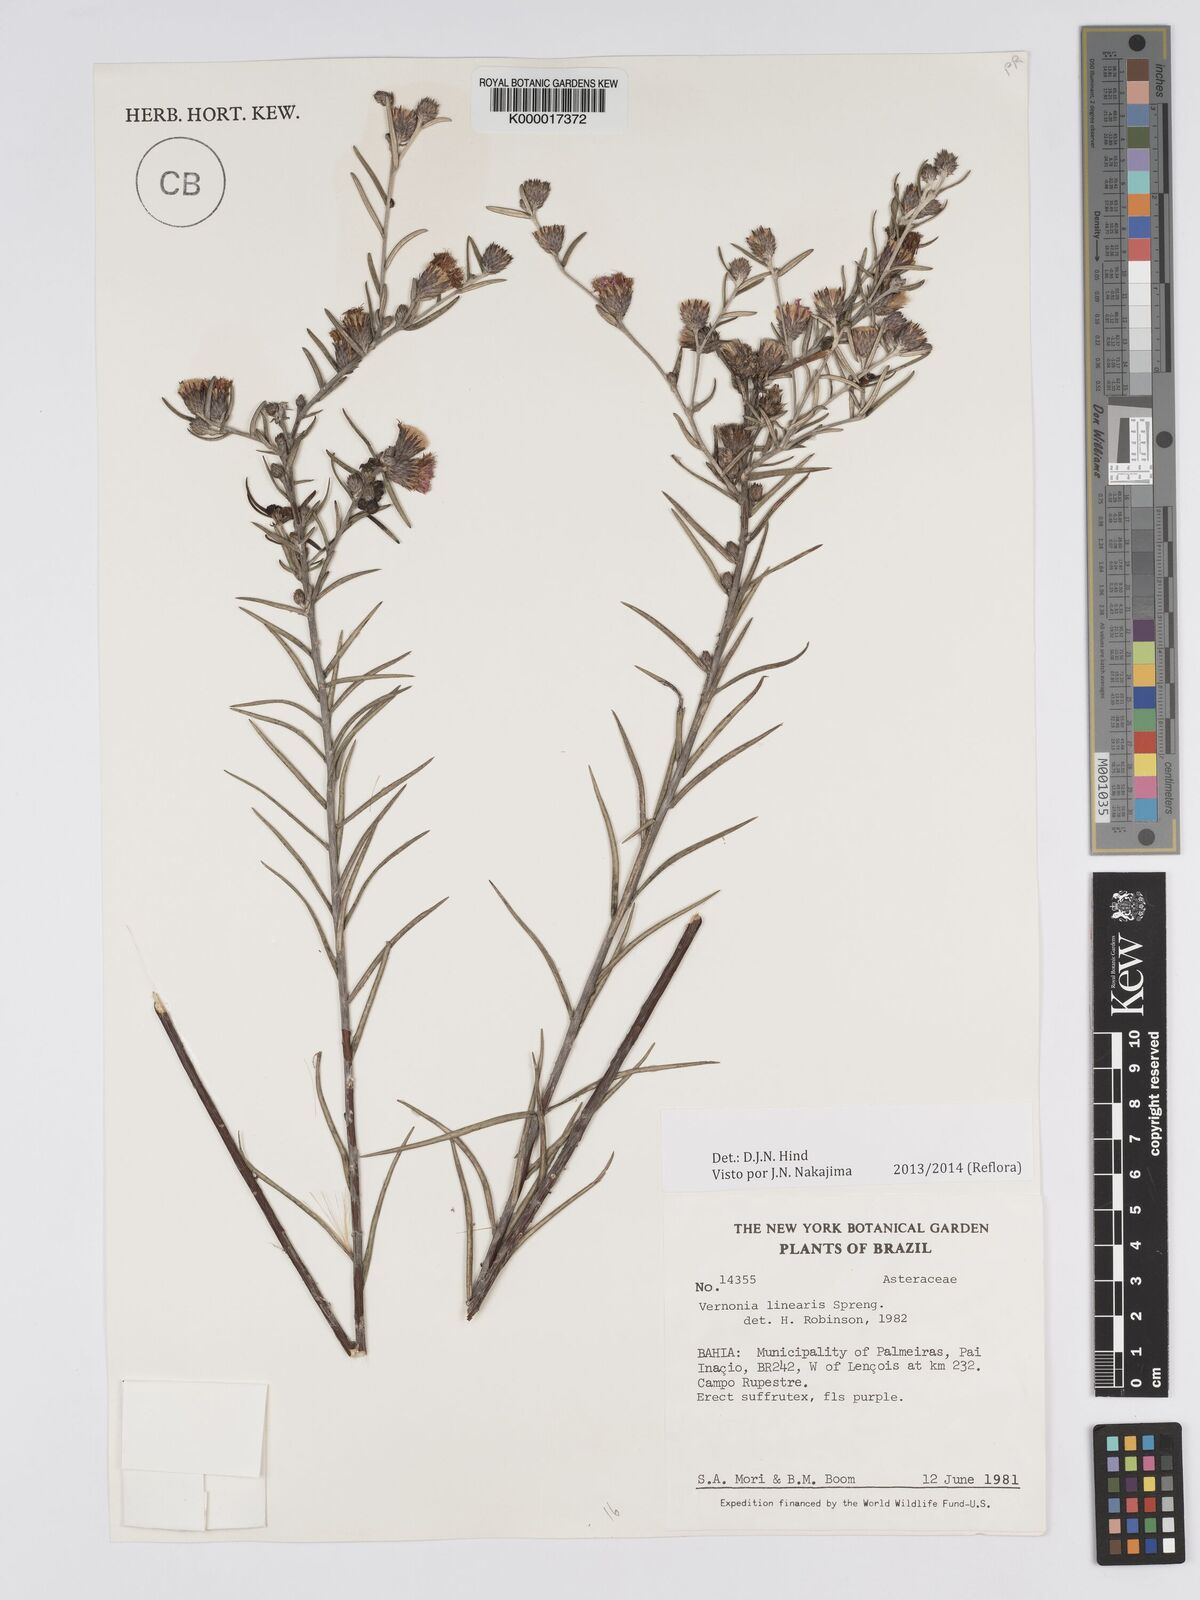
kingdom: Plantae
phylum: Tracheophyta
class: Magnoliopsida
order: Asterales
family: Asteraceae
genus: Lessingianthus
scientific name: Lessingianthus linearis
